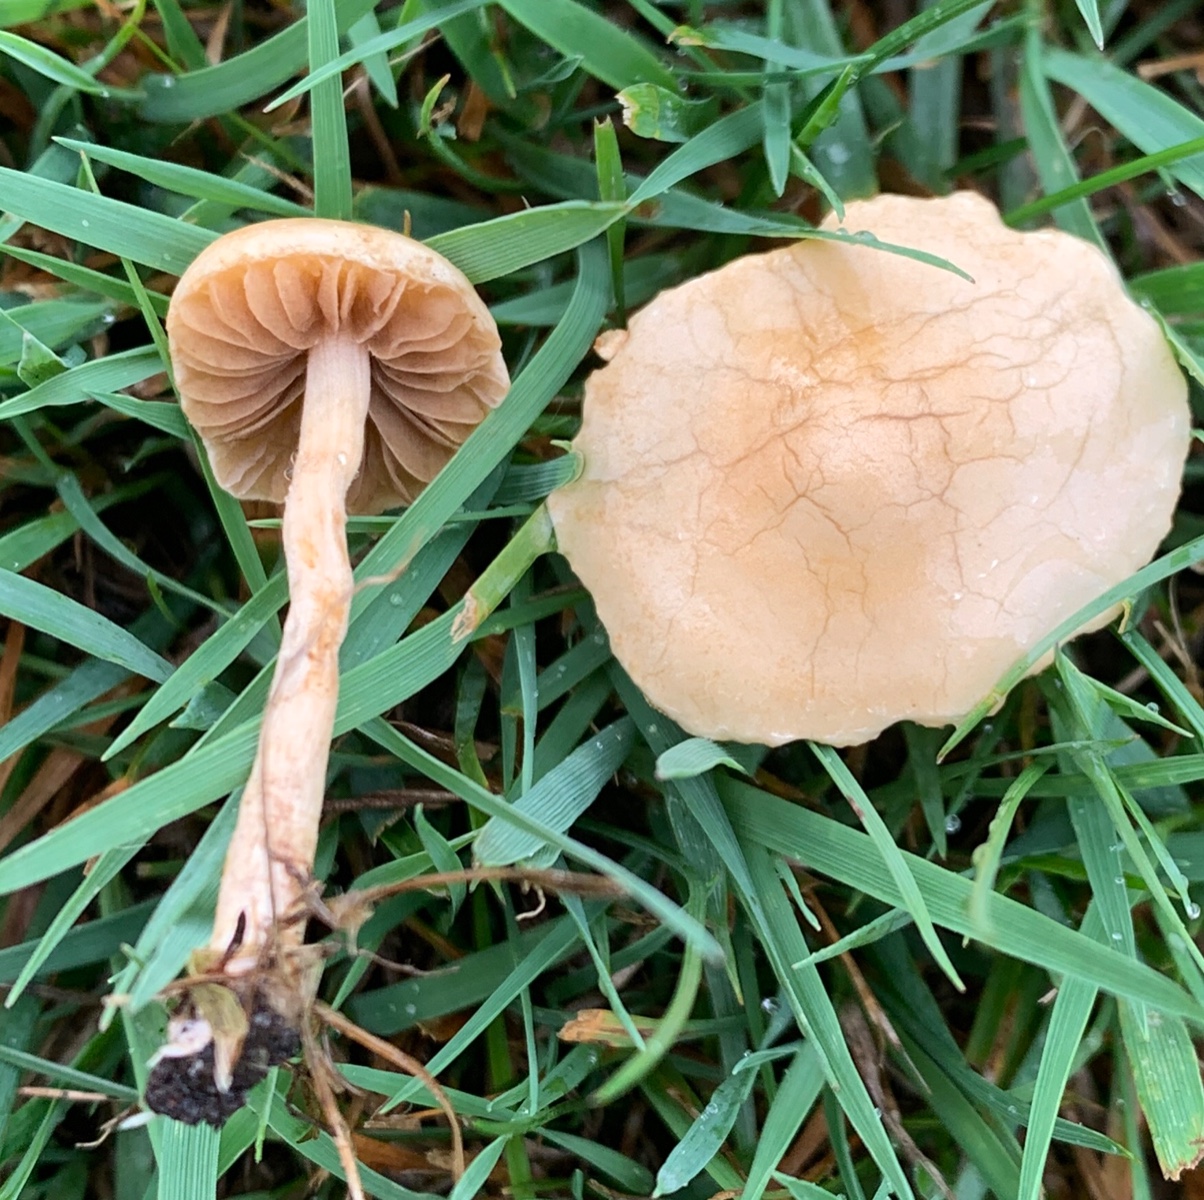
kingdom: Fungi
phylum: Basidiomycota
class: Agaricomycetes
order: Agaricales
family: Marasmiaceae
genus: Marasmius
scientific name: Marasmius oreades
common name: elledans-bruskhat
